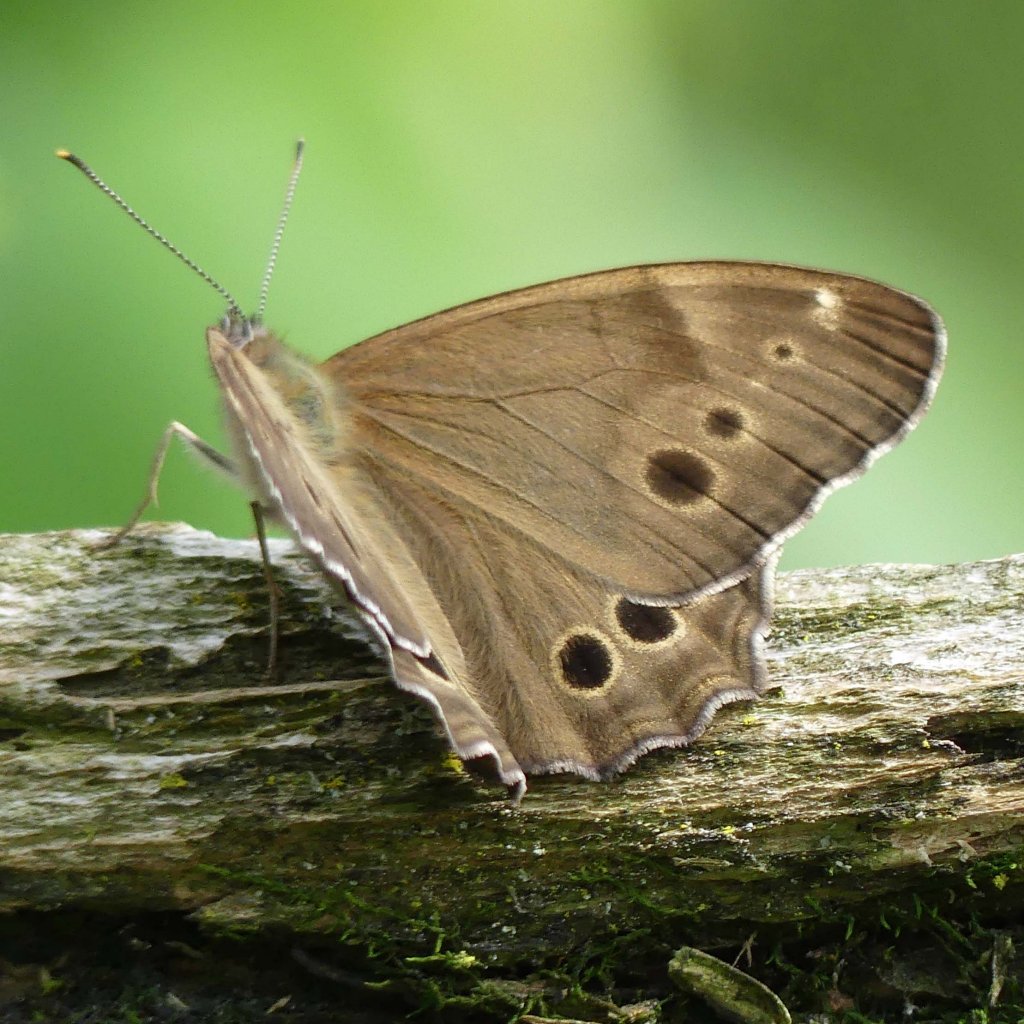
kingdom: Animalia
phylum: Arthropoda
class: Insecta
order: Lepidoptera
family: Nymphalidae
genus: Lethe
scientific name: Lethe anthedon
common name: Northern Pearly-Eye
